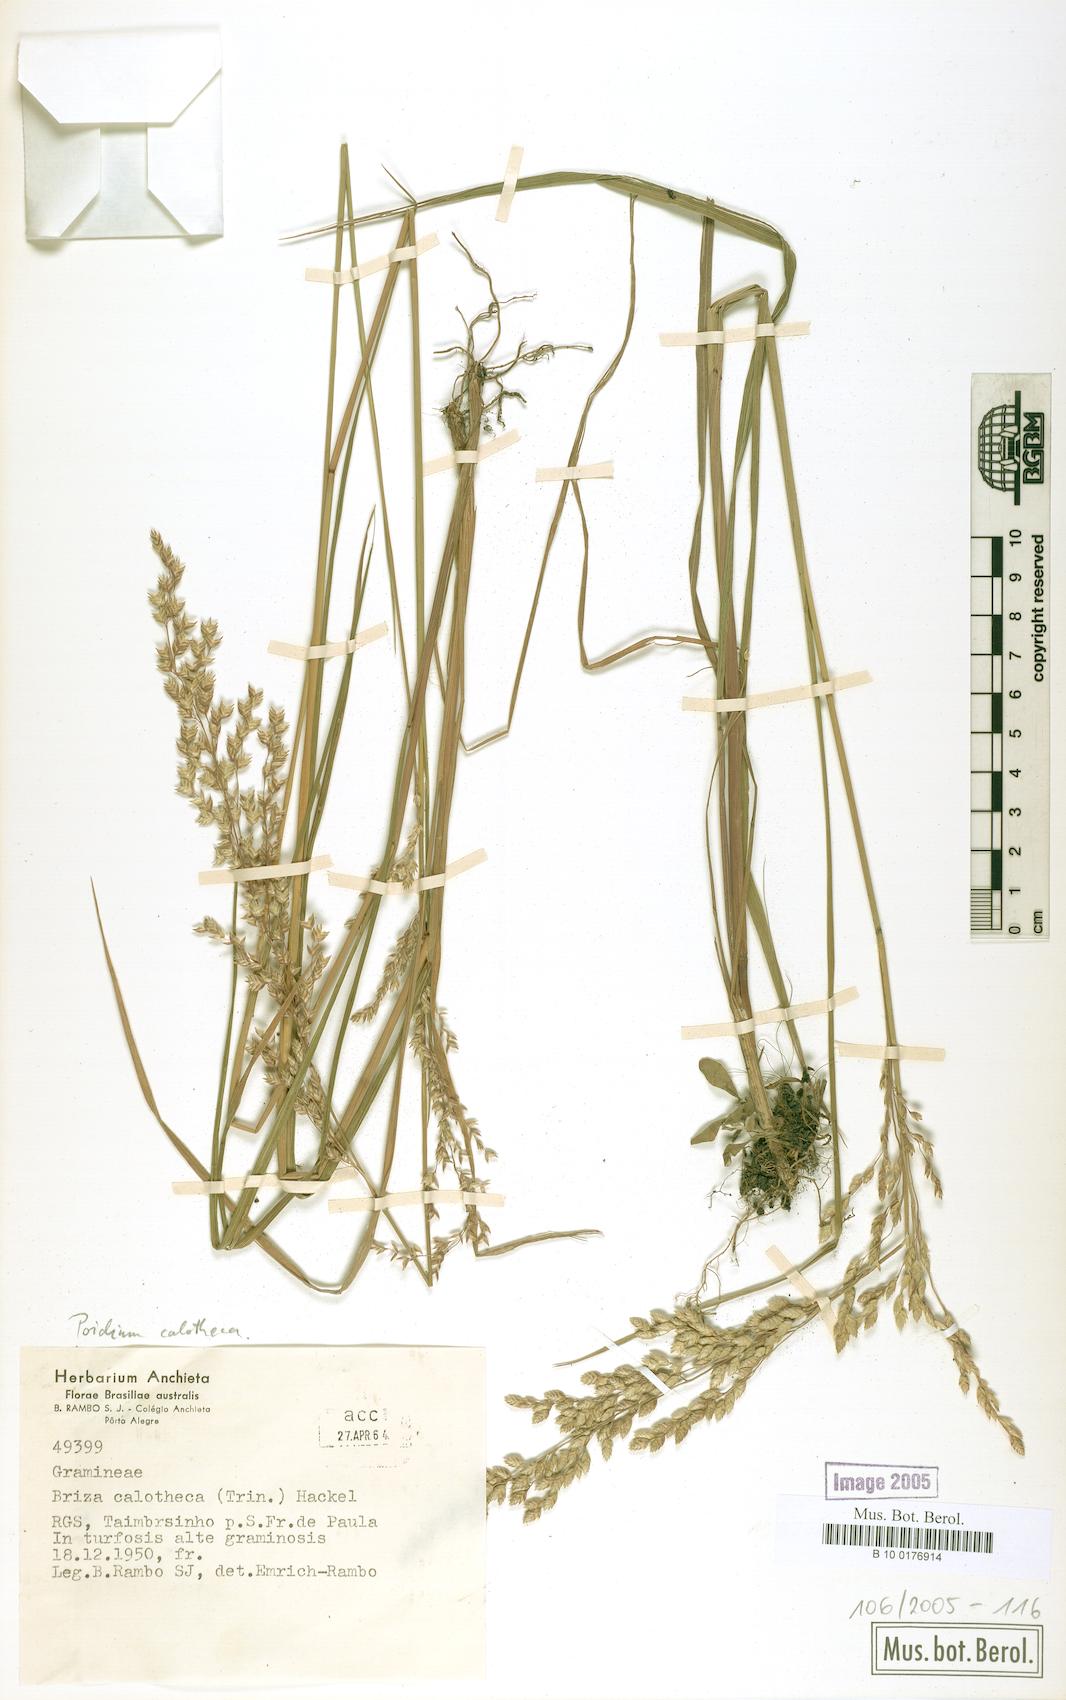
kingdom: Plantae
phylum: Tracheophyta
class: Liliopsida
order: Poales
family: Poaceae
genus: Poidium
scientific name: Poidium calotheca
